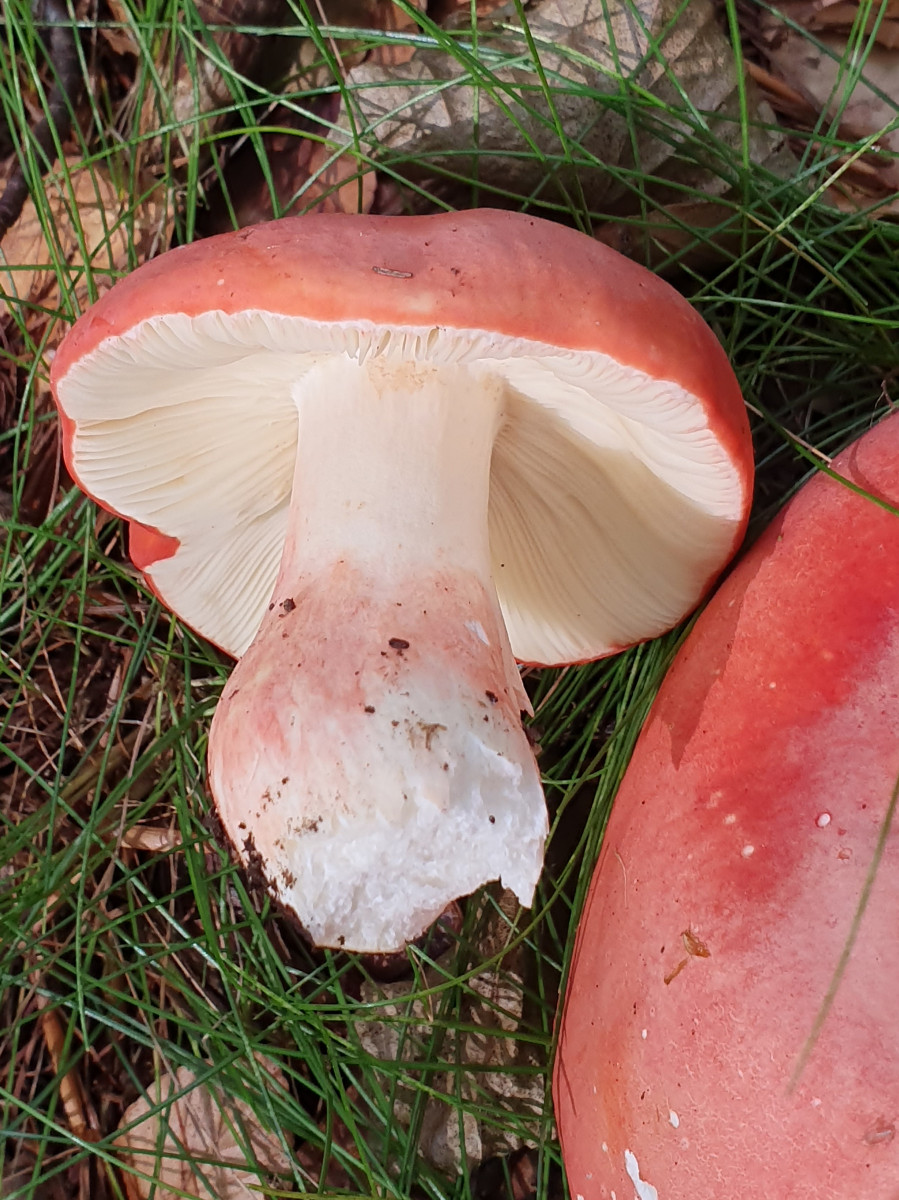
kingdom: Fungi
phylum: Basidiomycota
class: Agaricomycetes
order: Russulales
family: Russulaceae
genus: Russula
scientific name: Russula rosea
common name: fastkødet skørhat
